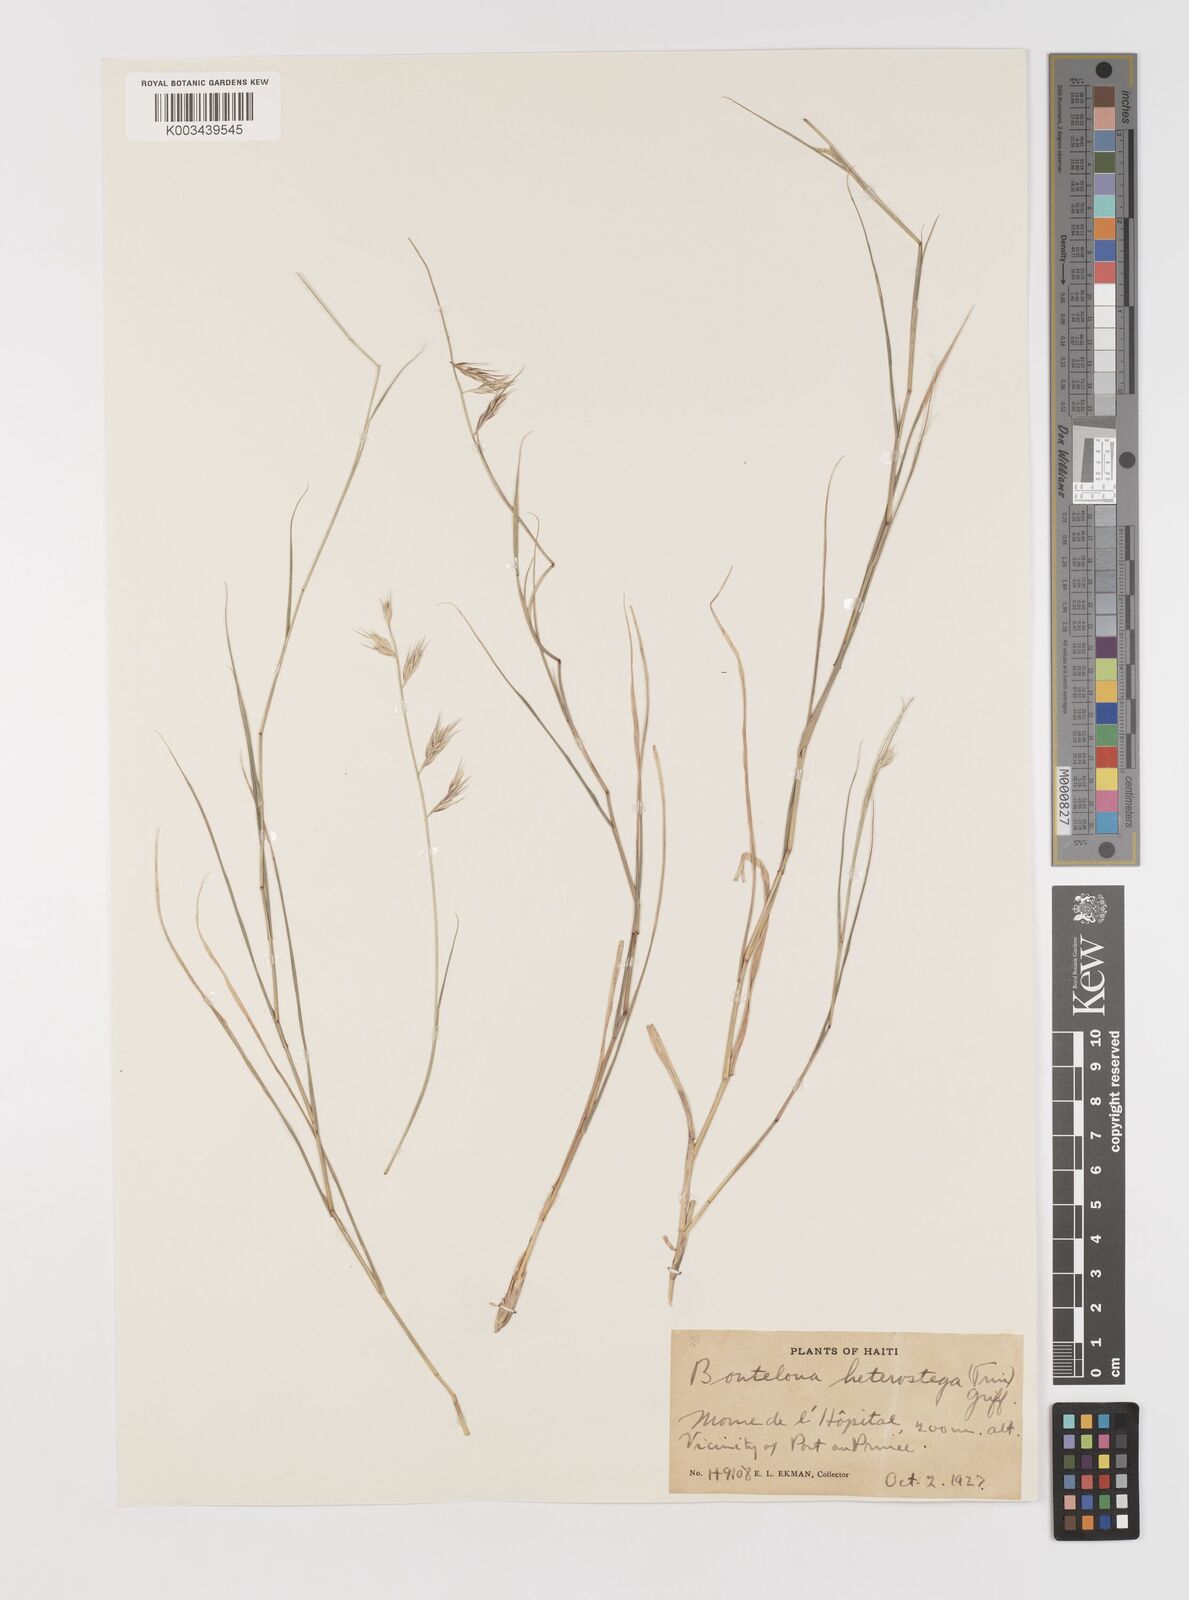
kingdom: Plantae
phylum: Tracheophyta
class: Liliopsida
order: Poales
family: Poaceae
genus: Bouteloua
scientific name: Bouteloua repens
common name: Slender grama
